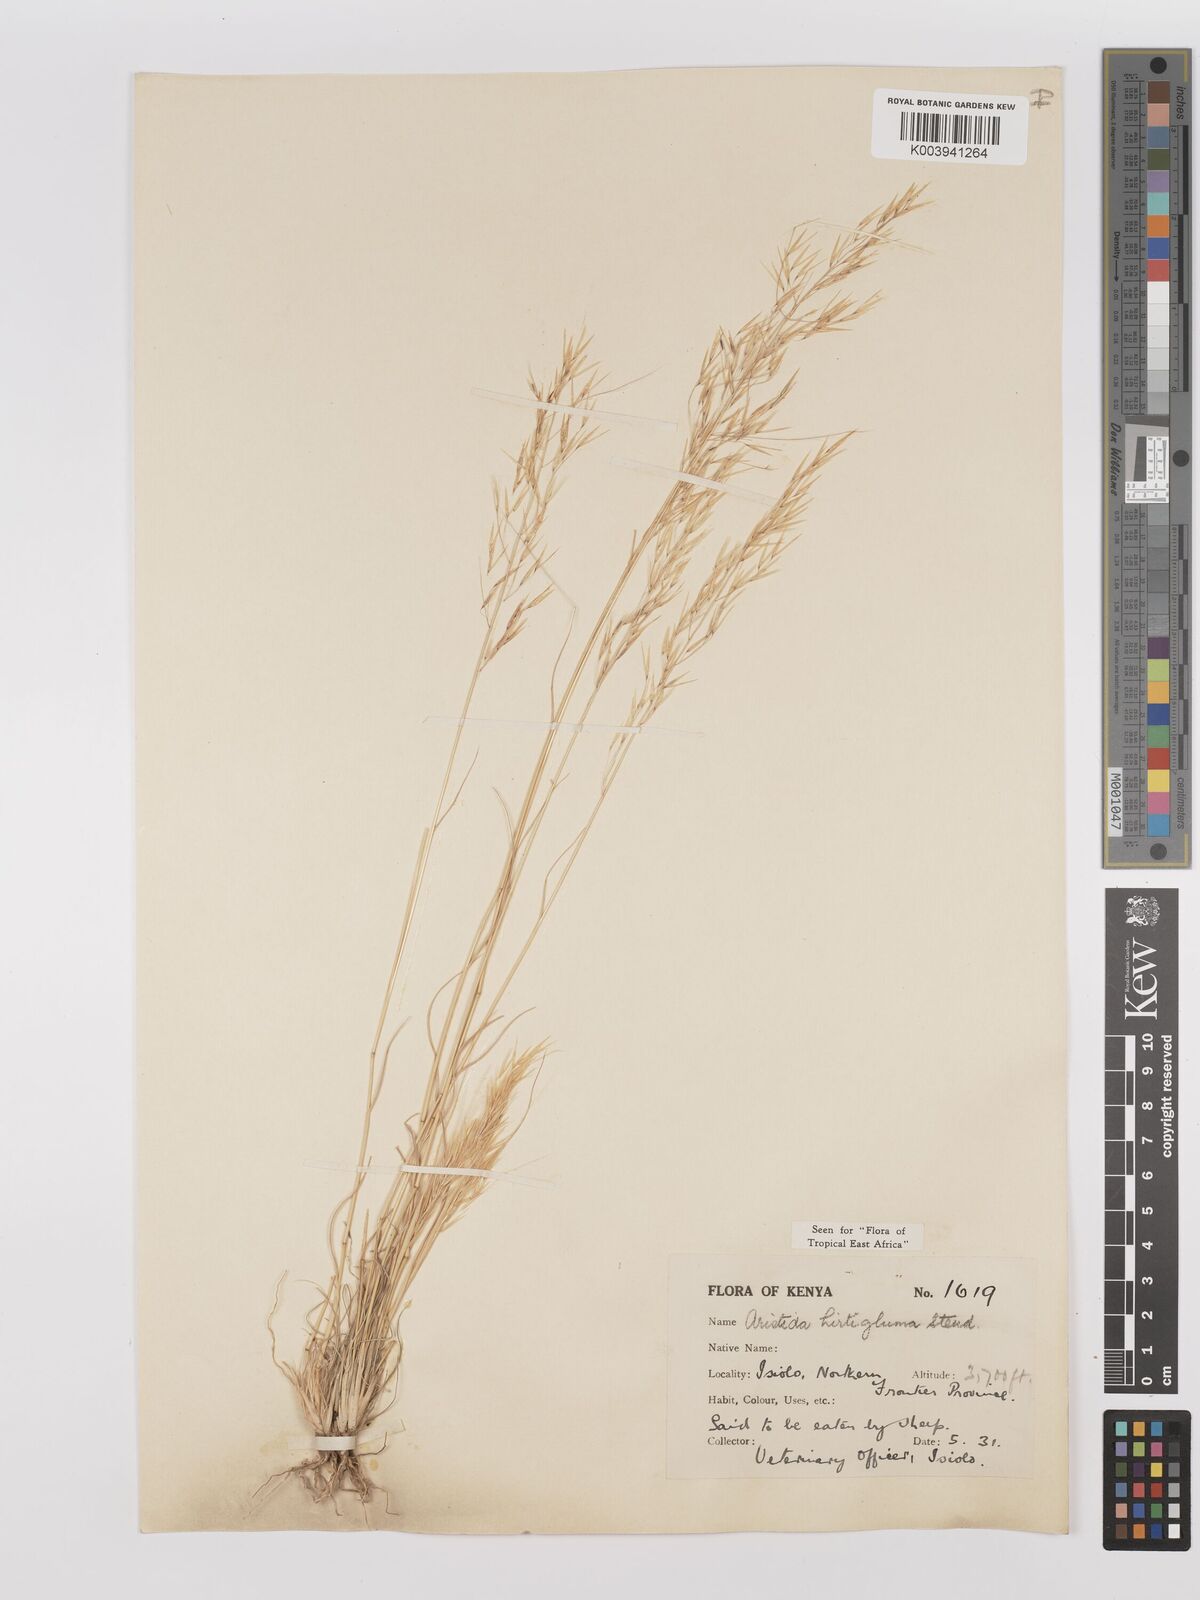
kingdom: Plantae
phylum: Tracheophyta
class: Liliopsida
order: Poales
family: Poaceae
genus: Stipagrostis
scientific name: Stipagrostis hirtigluma
